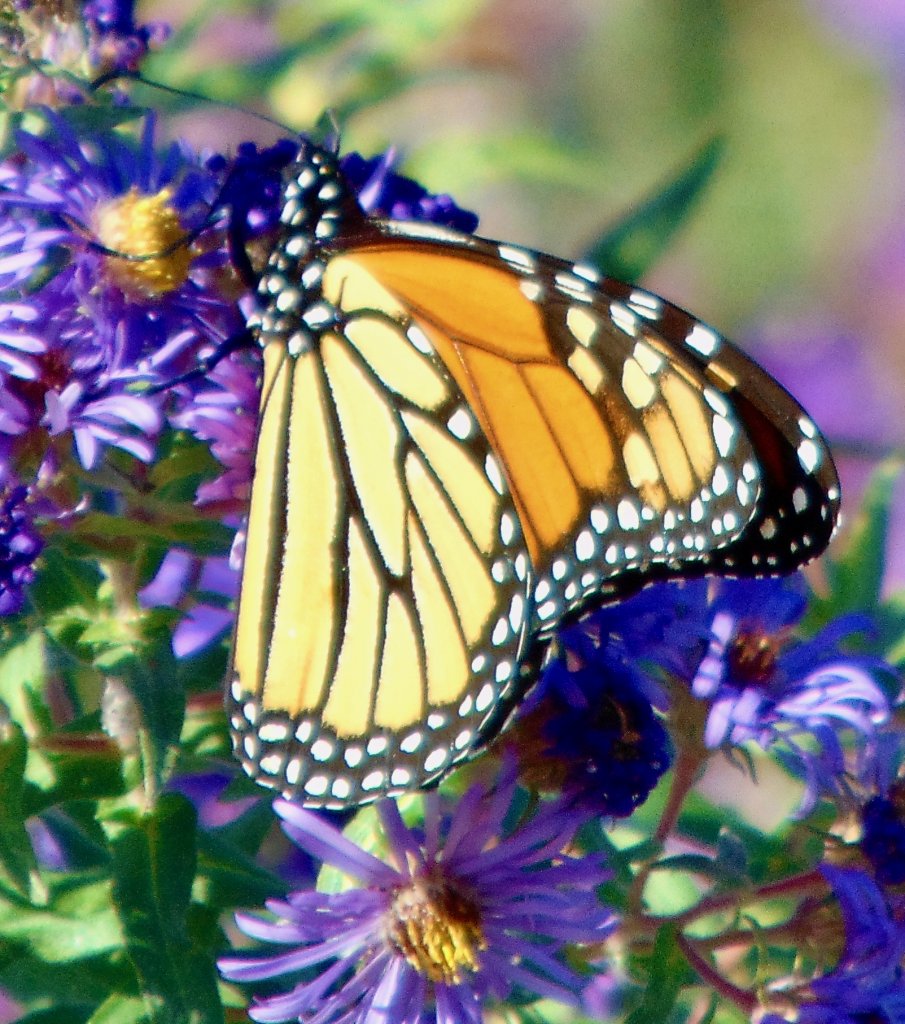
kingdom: Animalia
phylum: Arthropoda
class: Insecta
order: Lepidoptera
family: Nymphalidae
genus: Danaus
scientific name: Danaus plexippus
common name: Monarch
